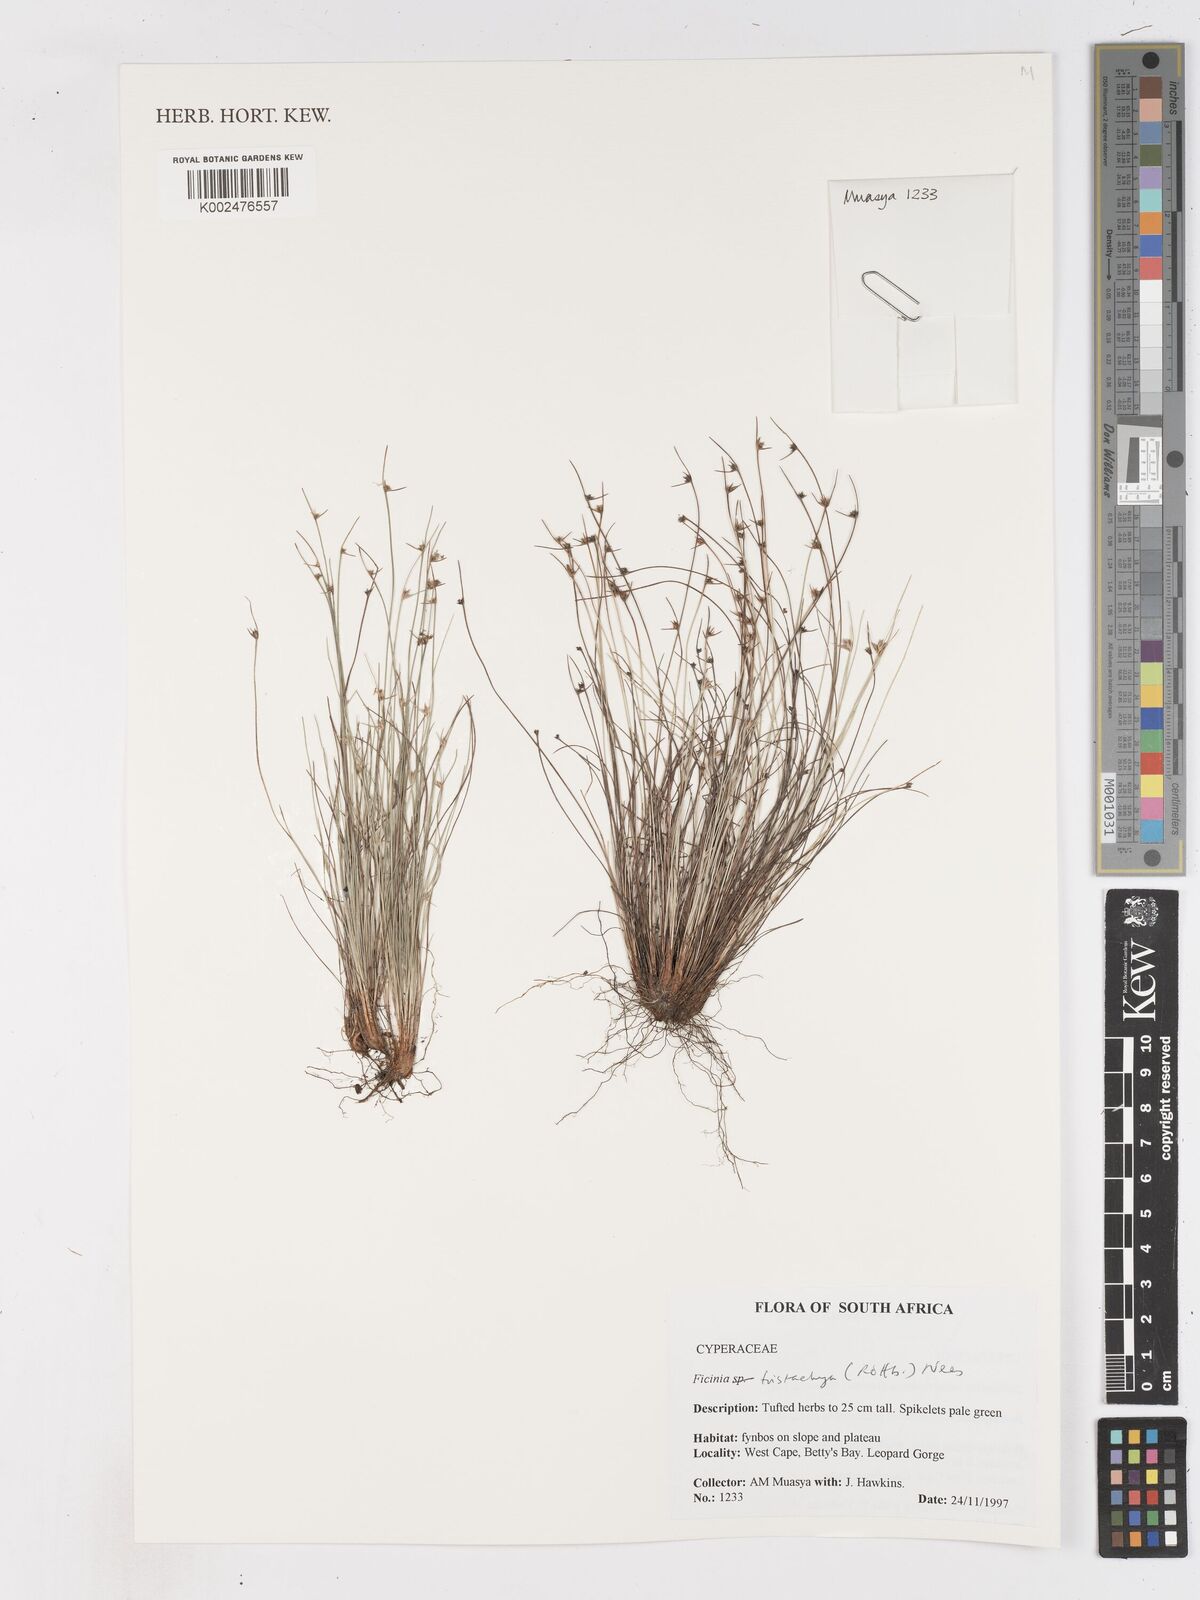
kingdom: Plantae
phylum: Tracheophyta
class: Liliopsida
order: Poales
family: Cyperaceae
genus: Ficinia
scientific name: Ficinia
